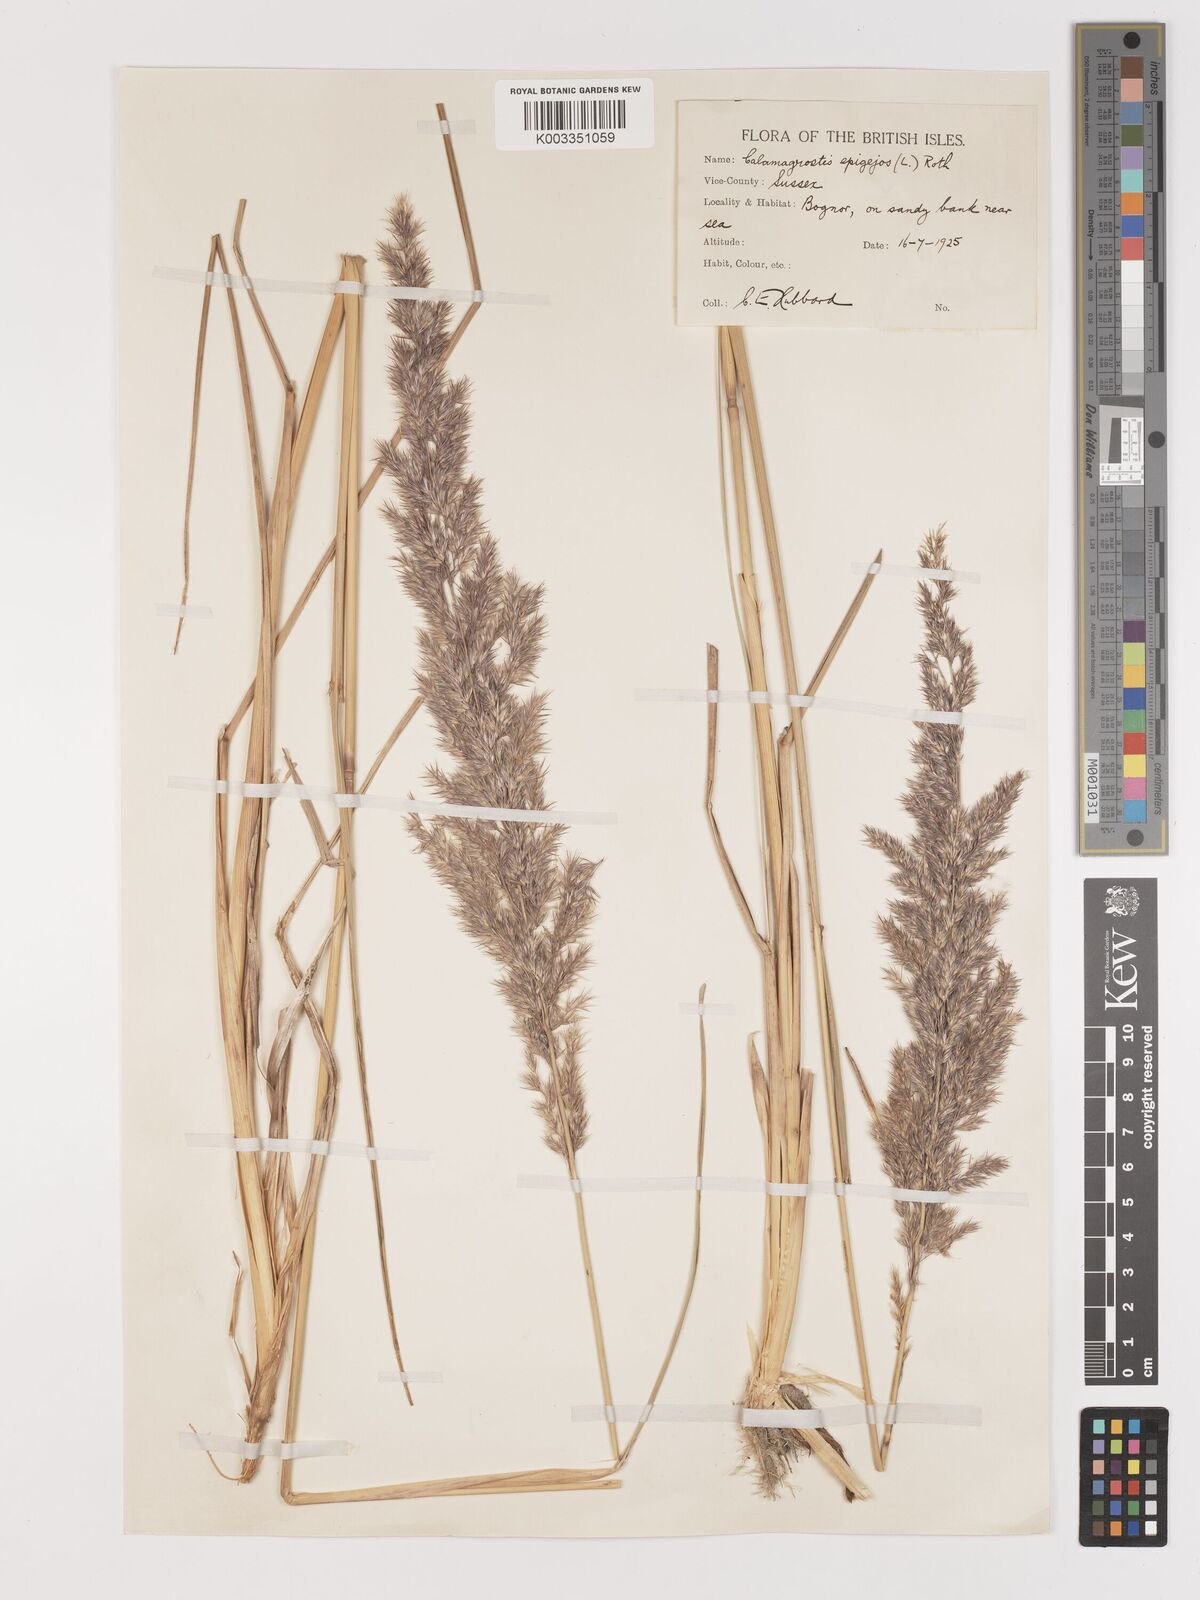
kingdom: Plantae
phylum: Tracheophyta
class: Liliopsida
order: Poales
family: Poaceae
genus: Calamagrostis
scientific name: Calamagrostis epigejos
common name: Wood small-reed
